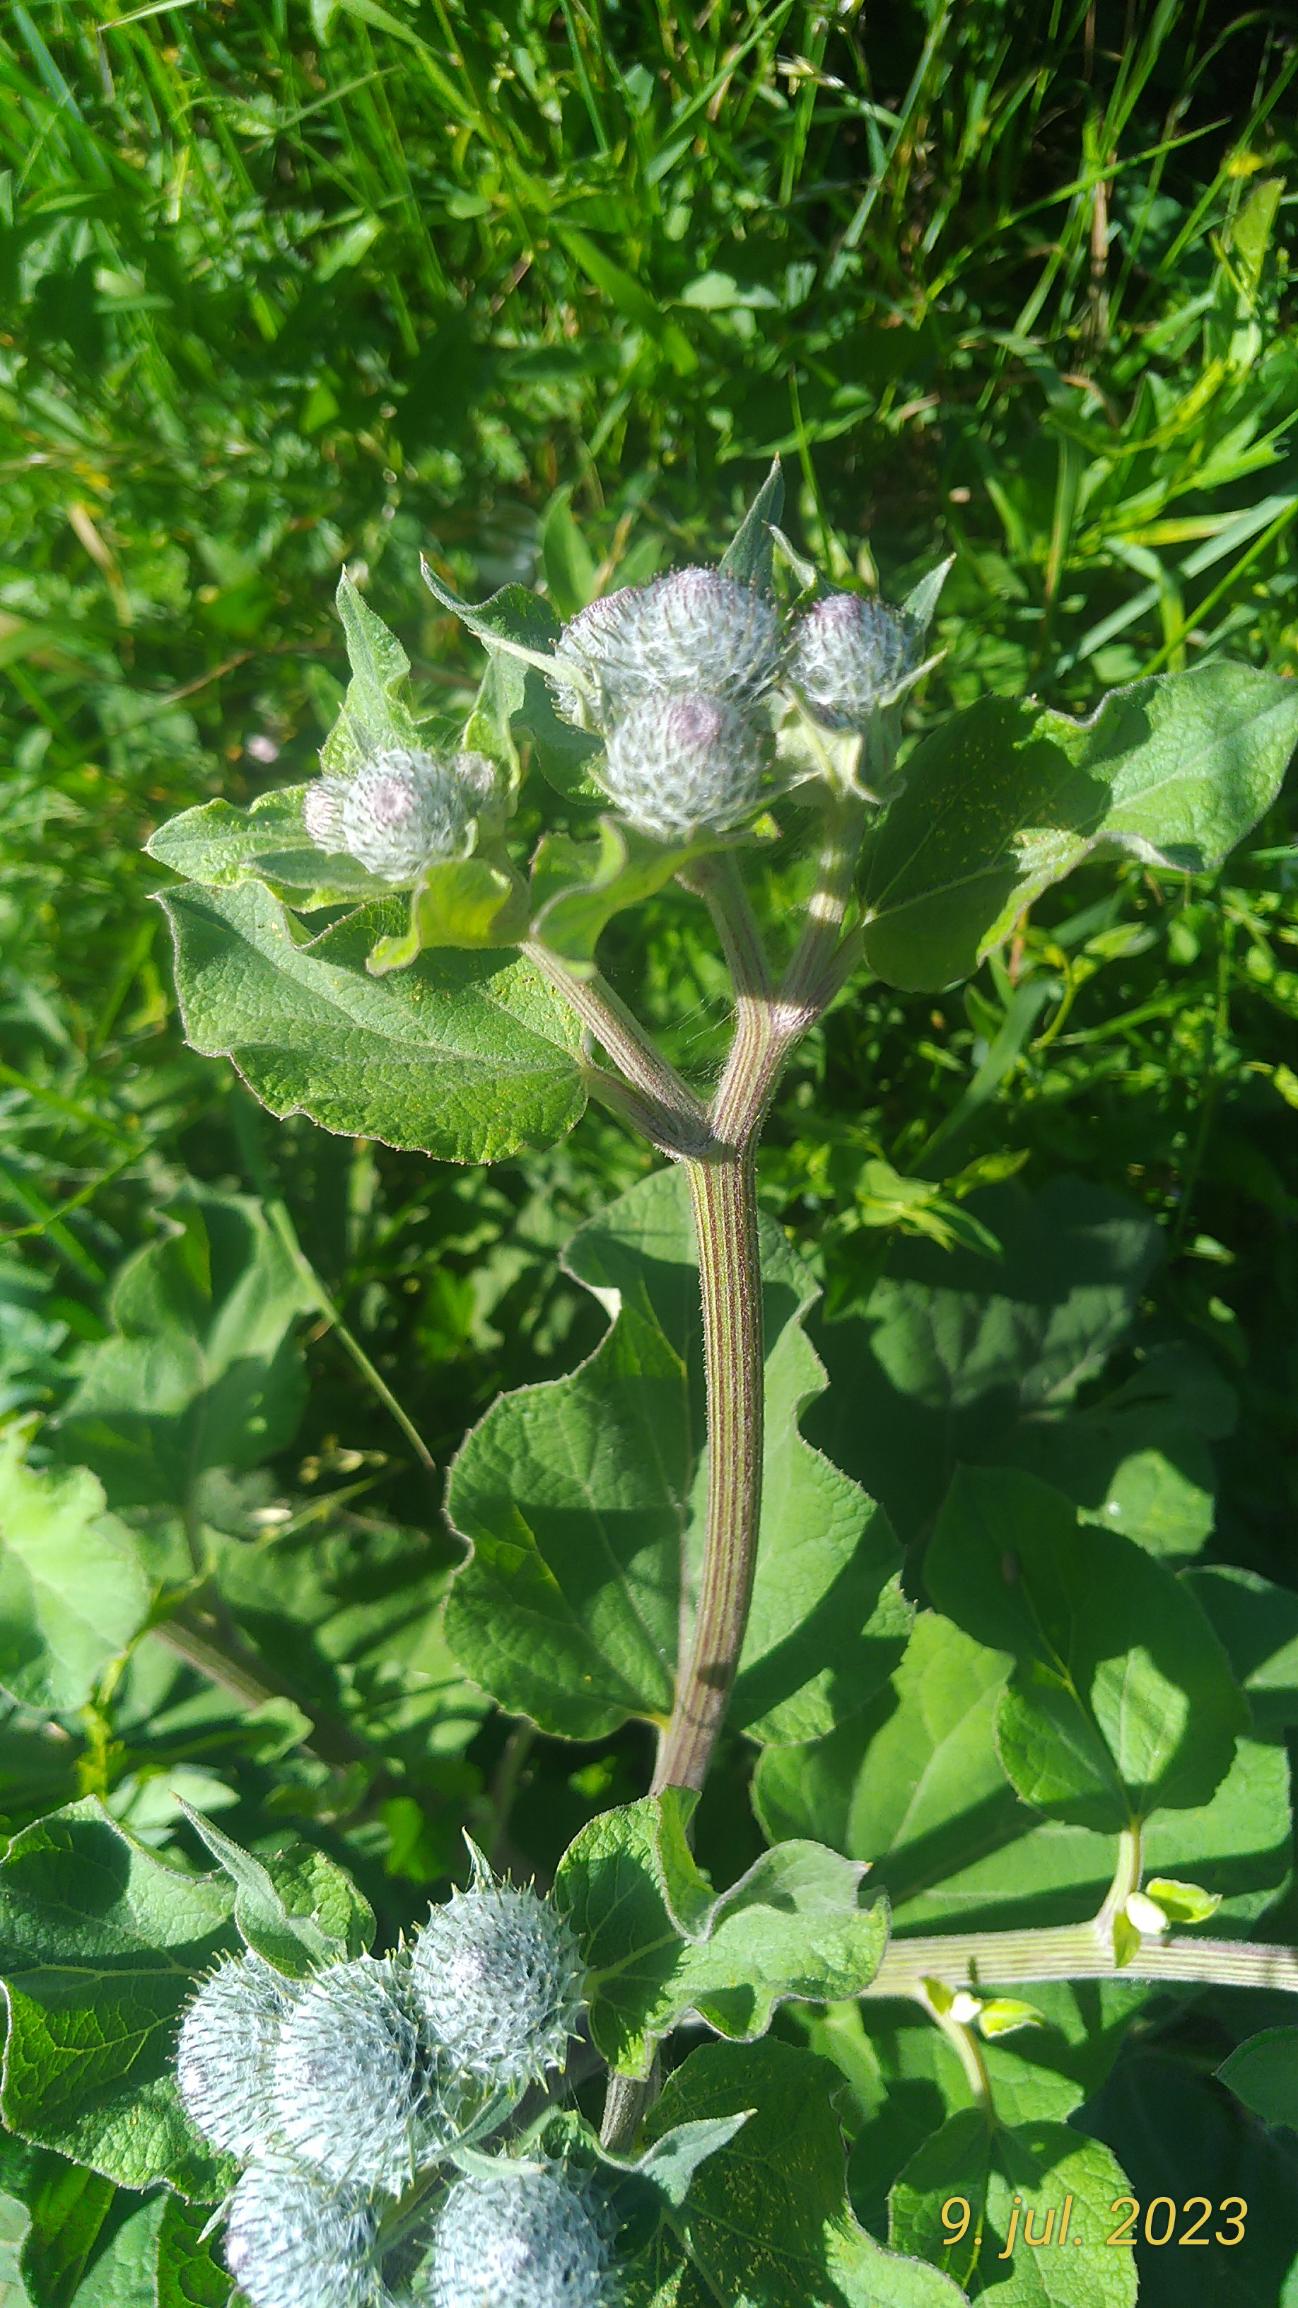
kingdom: Plantae
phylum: Tracheophyta
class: Magnoliopsida
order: Asterales
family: Asteraceae
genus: Arctium
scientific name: Arctium tomentosum
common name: Filtet burre
